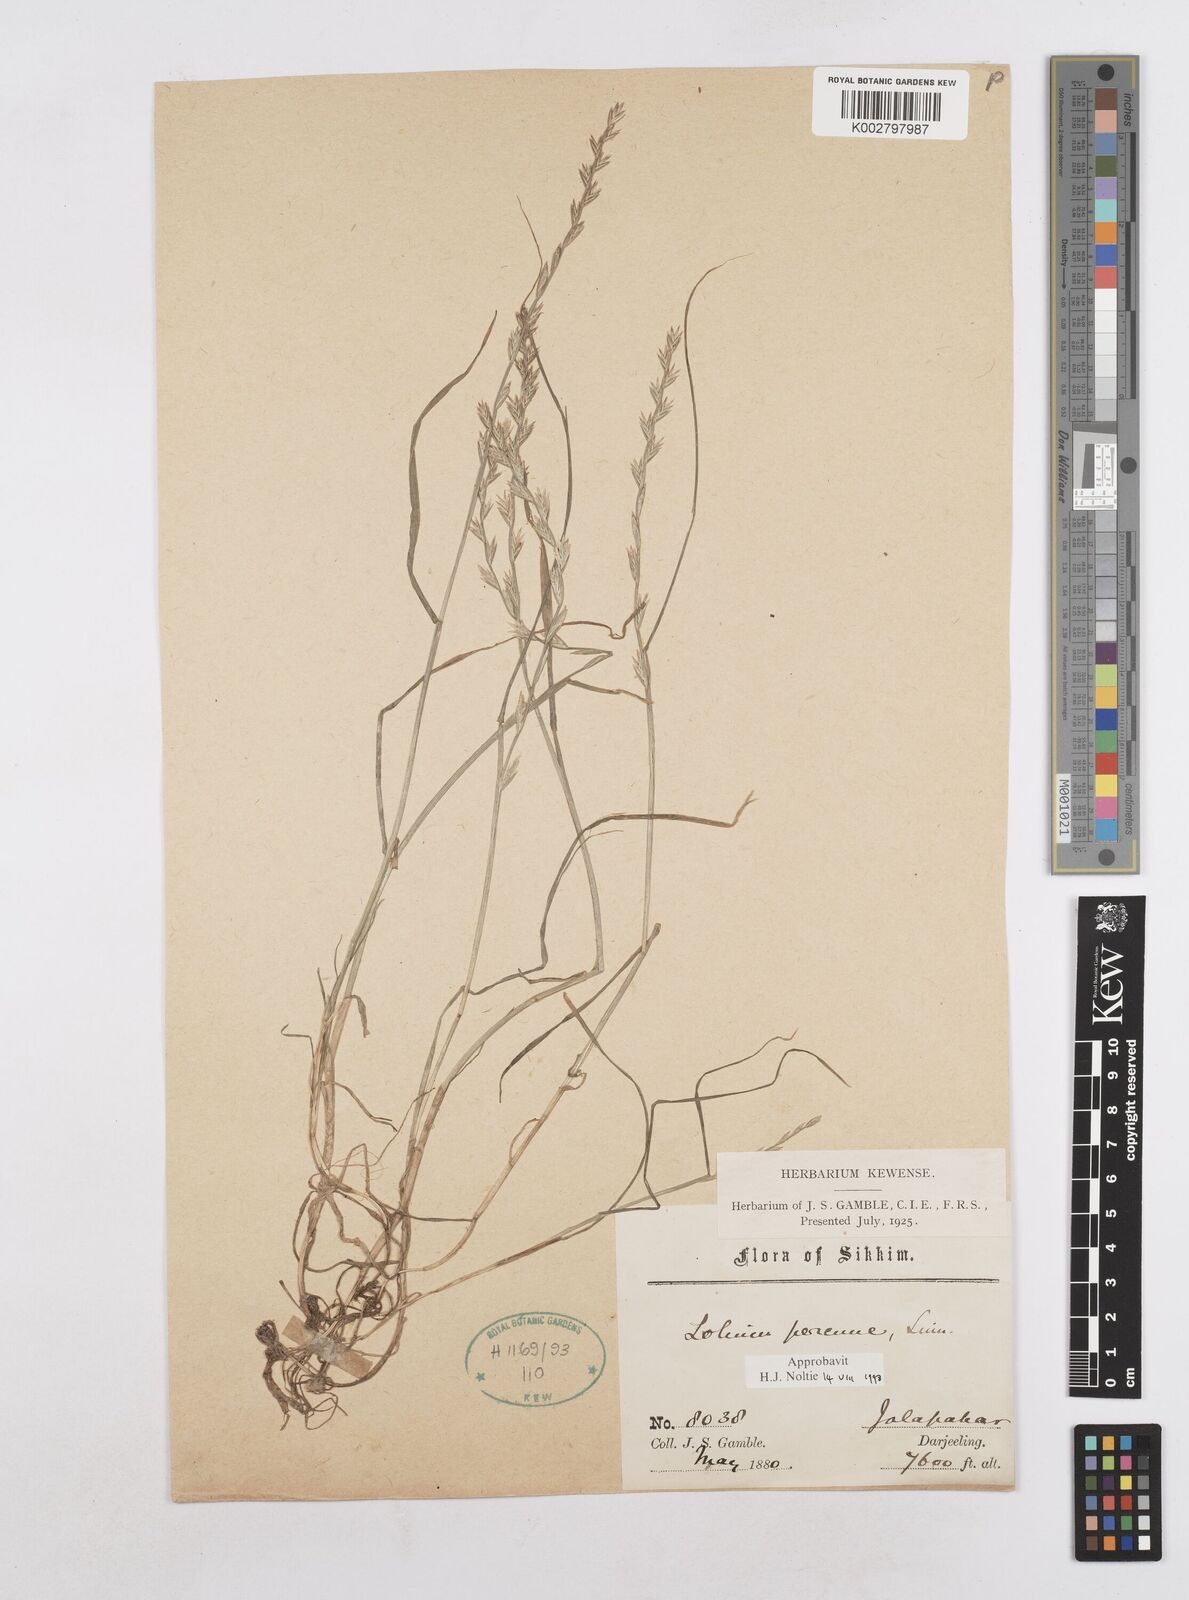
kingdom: Plantae
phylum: Tracheophyta
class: Liliopsida
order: Poales
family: Poaceae
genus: Lolium
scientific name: Lolium perenne
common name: Perennial ryegrass
